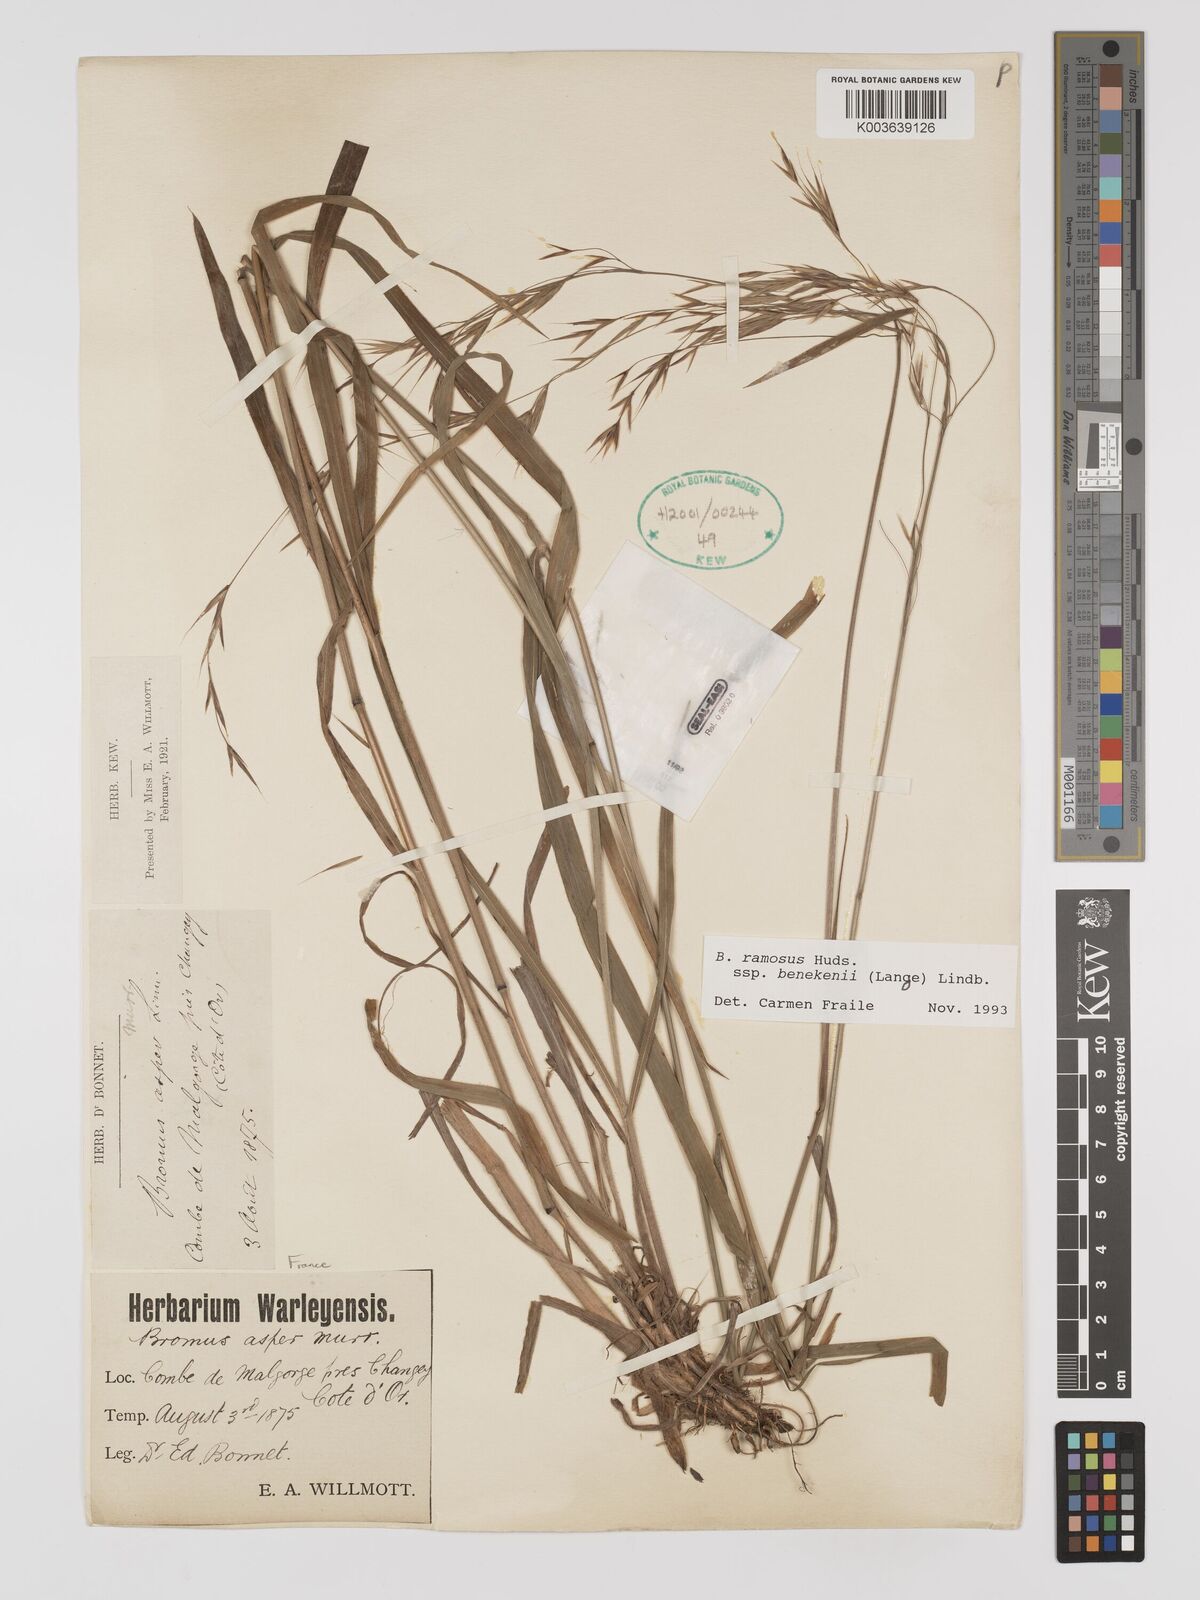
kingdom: Plantae
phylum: Tracheophyta
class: Liliopsida
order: Poales
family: Poaceae
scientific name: Poaceae
